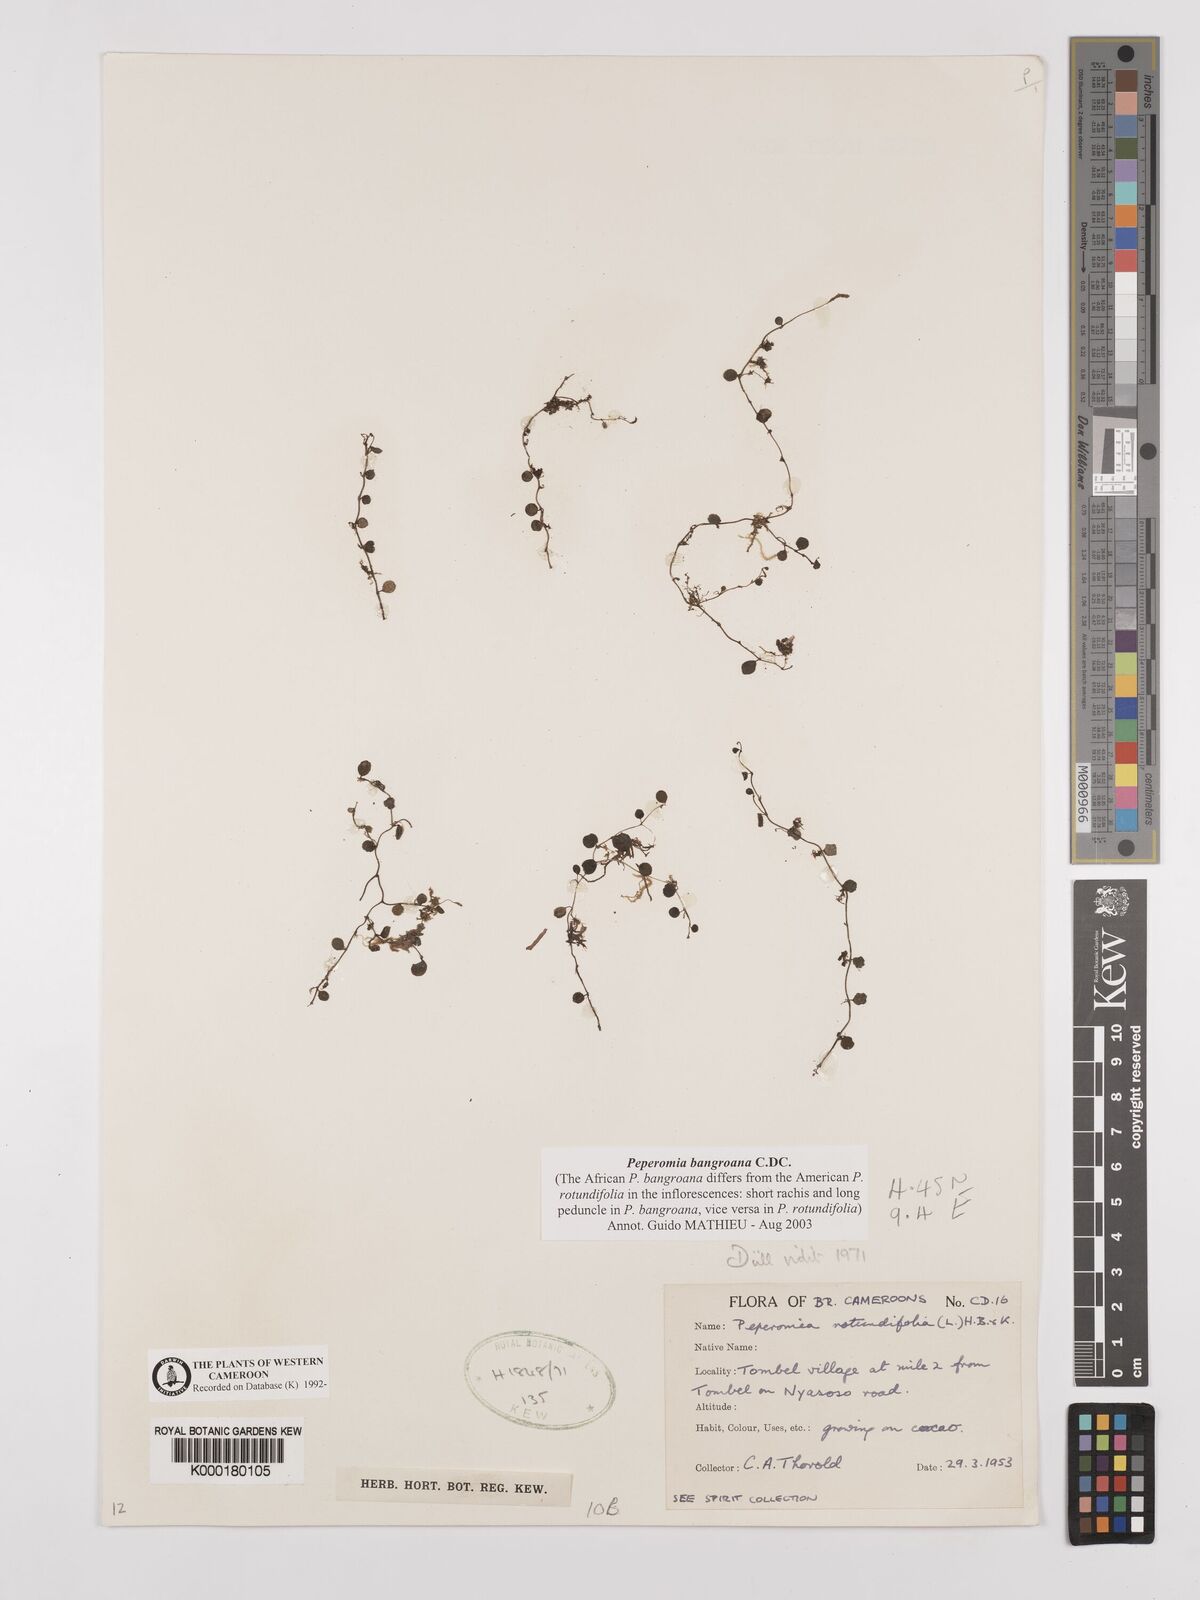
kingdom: Plantae
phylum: Tracheophyta
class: Magnoliopsida
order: Piperales
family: Piperaceae
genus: Peperomia
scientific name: Peperomia bangroana
